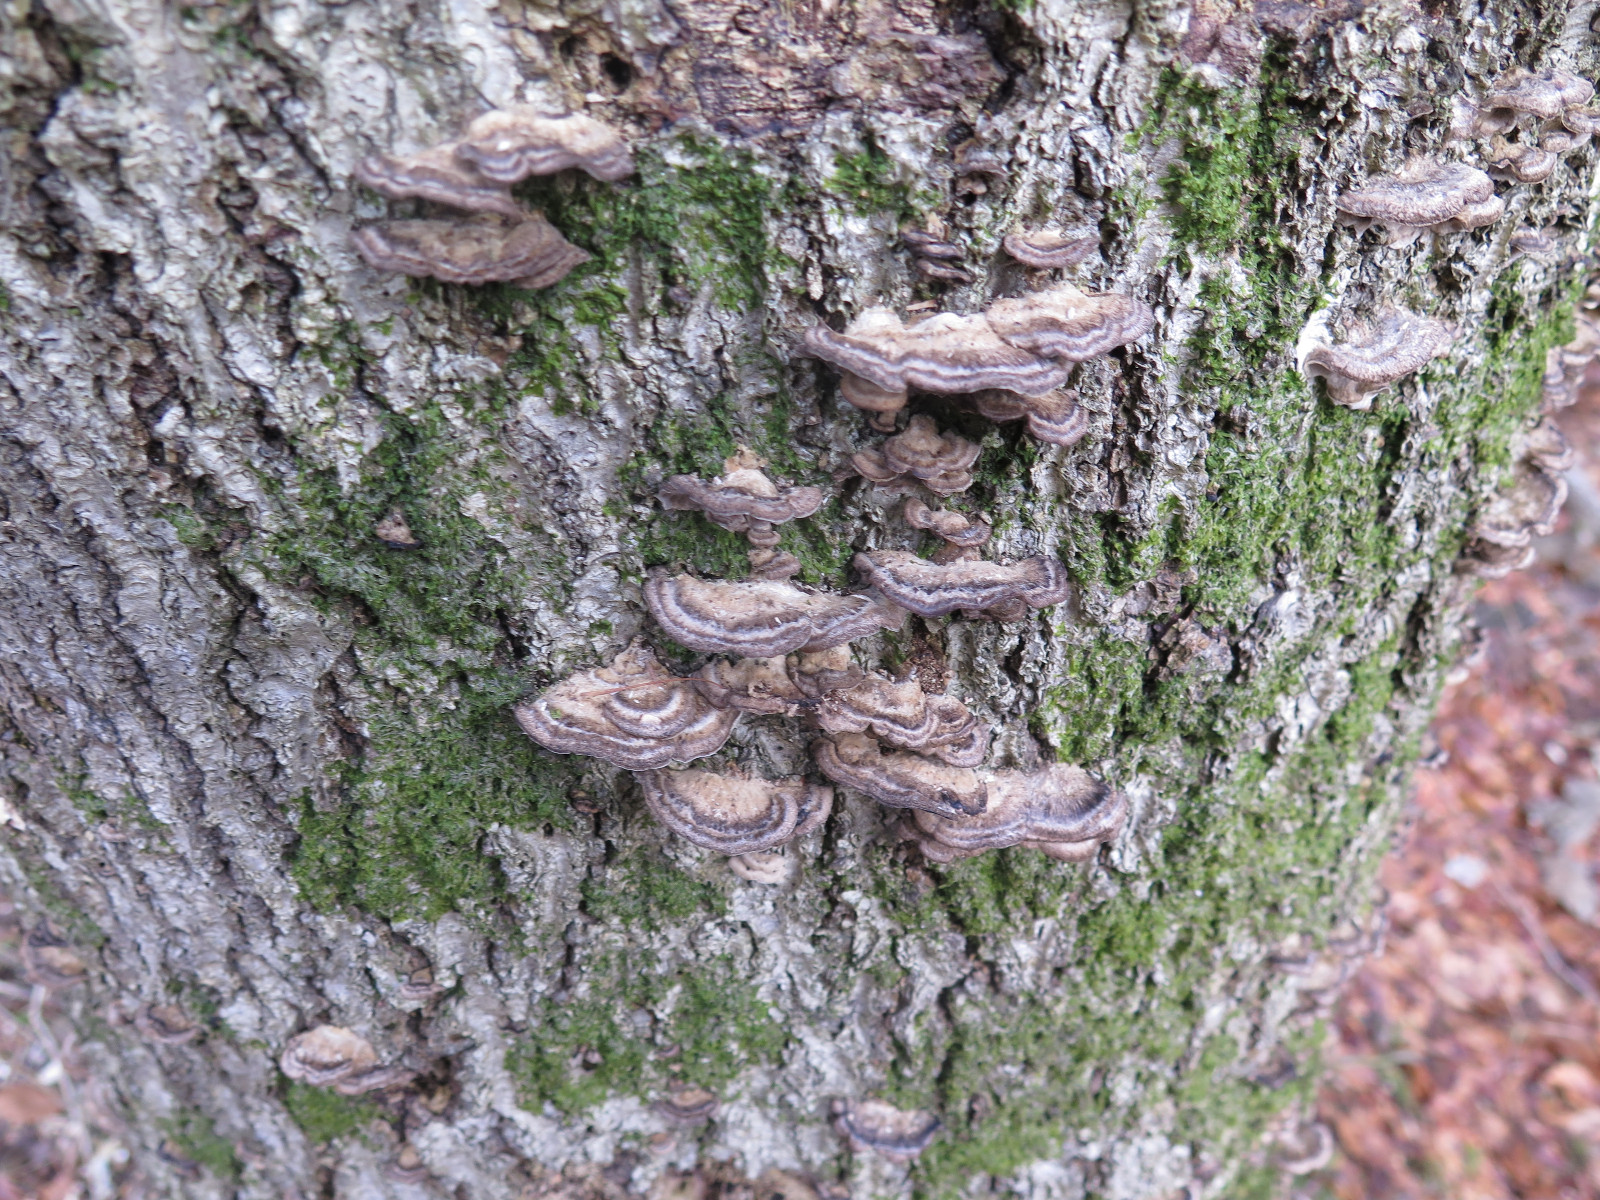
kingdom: Fungi
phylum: Basidiomycota
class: Agaricomycetes
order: Polyporales
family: Phanerochaetaceae
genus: Bjerkandera
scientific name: Bjerkandera adusta
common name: sveden sodporesvamp
